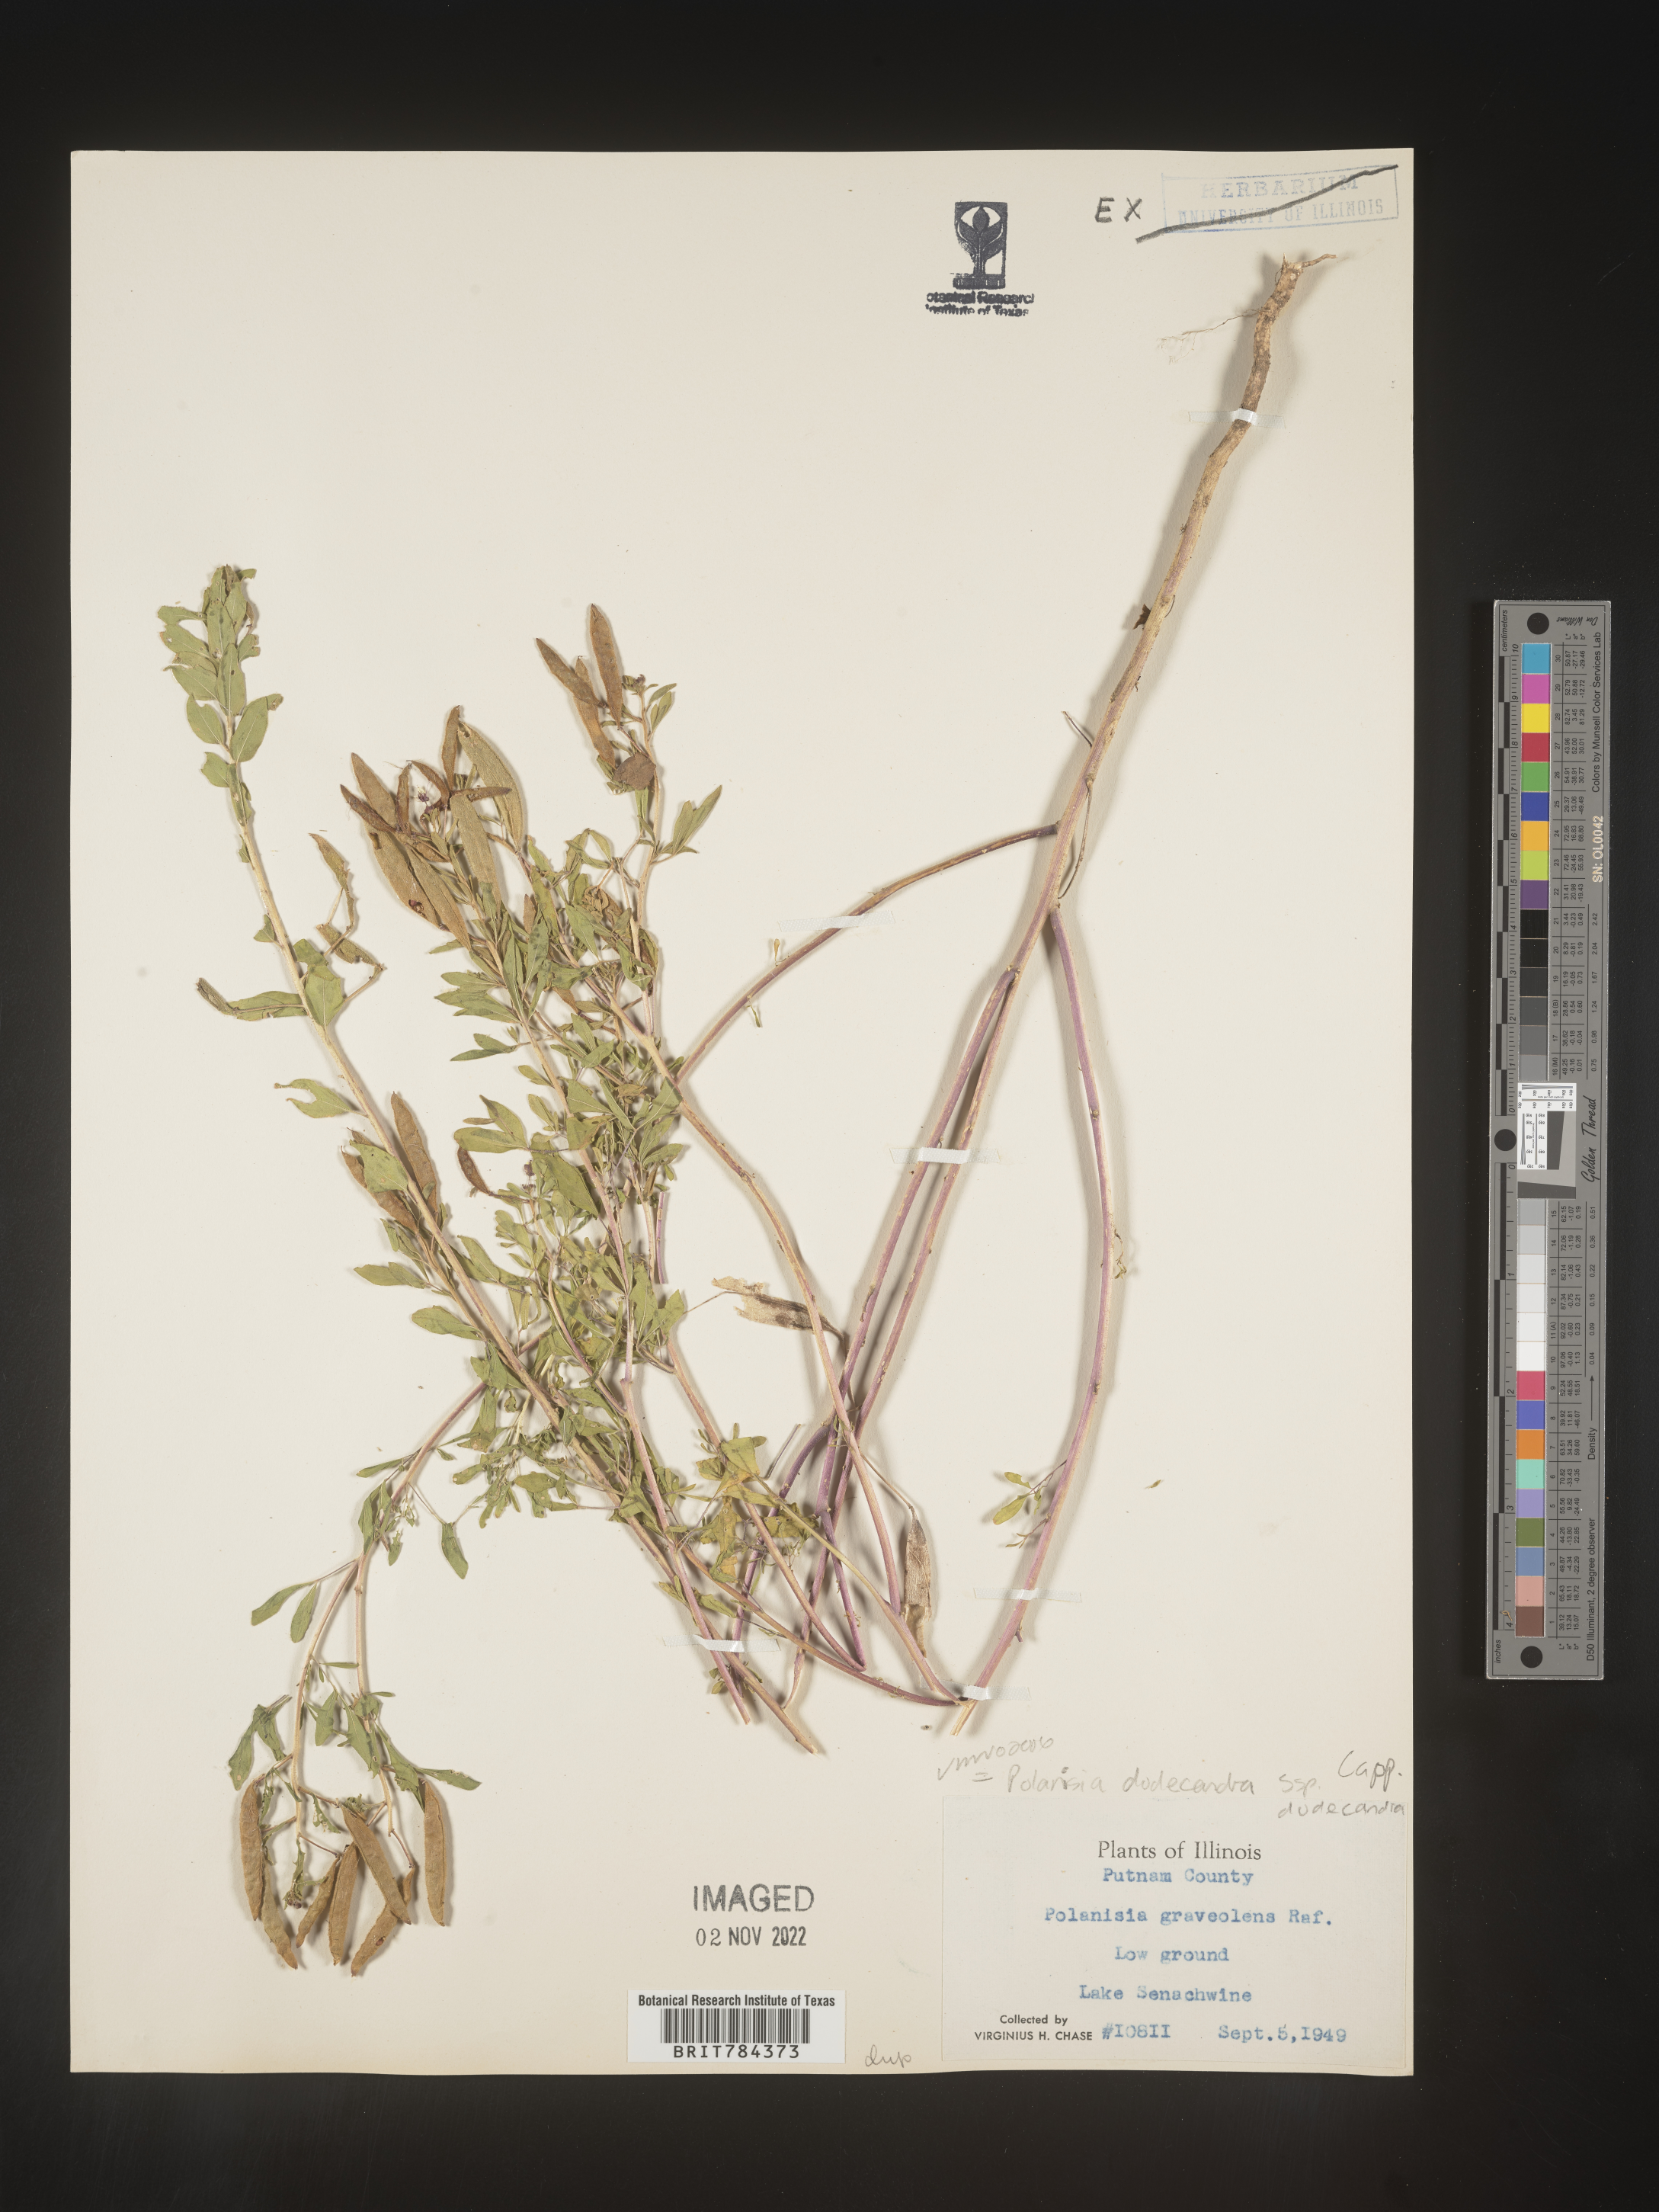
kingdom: Plantae
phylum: Tracheophyta
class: Magnoliopsida
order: Brassicales
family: Cleomaceae
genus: Polanisia
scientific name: Polanisia dodecandra
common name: Clammyweed
